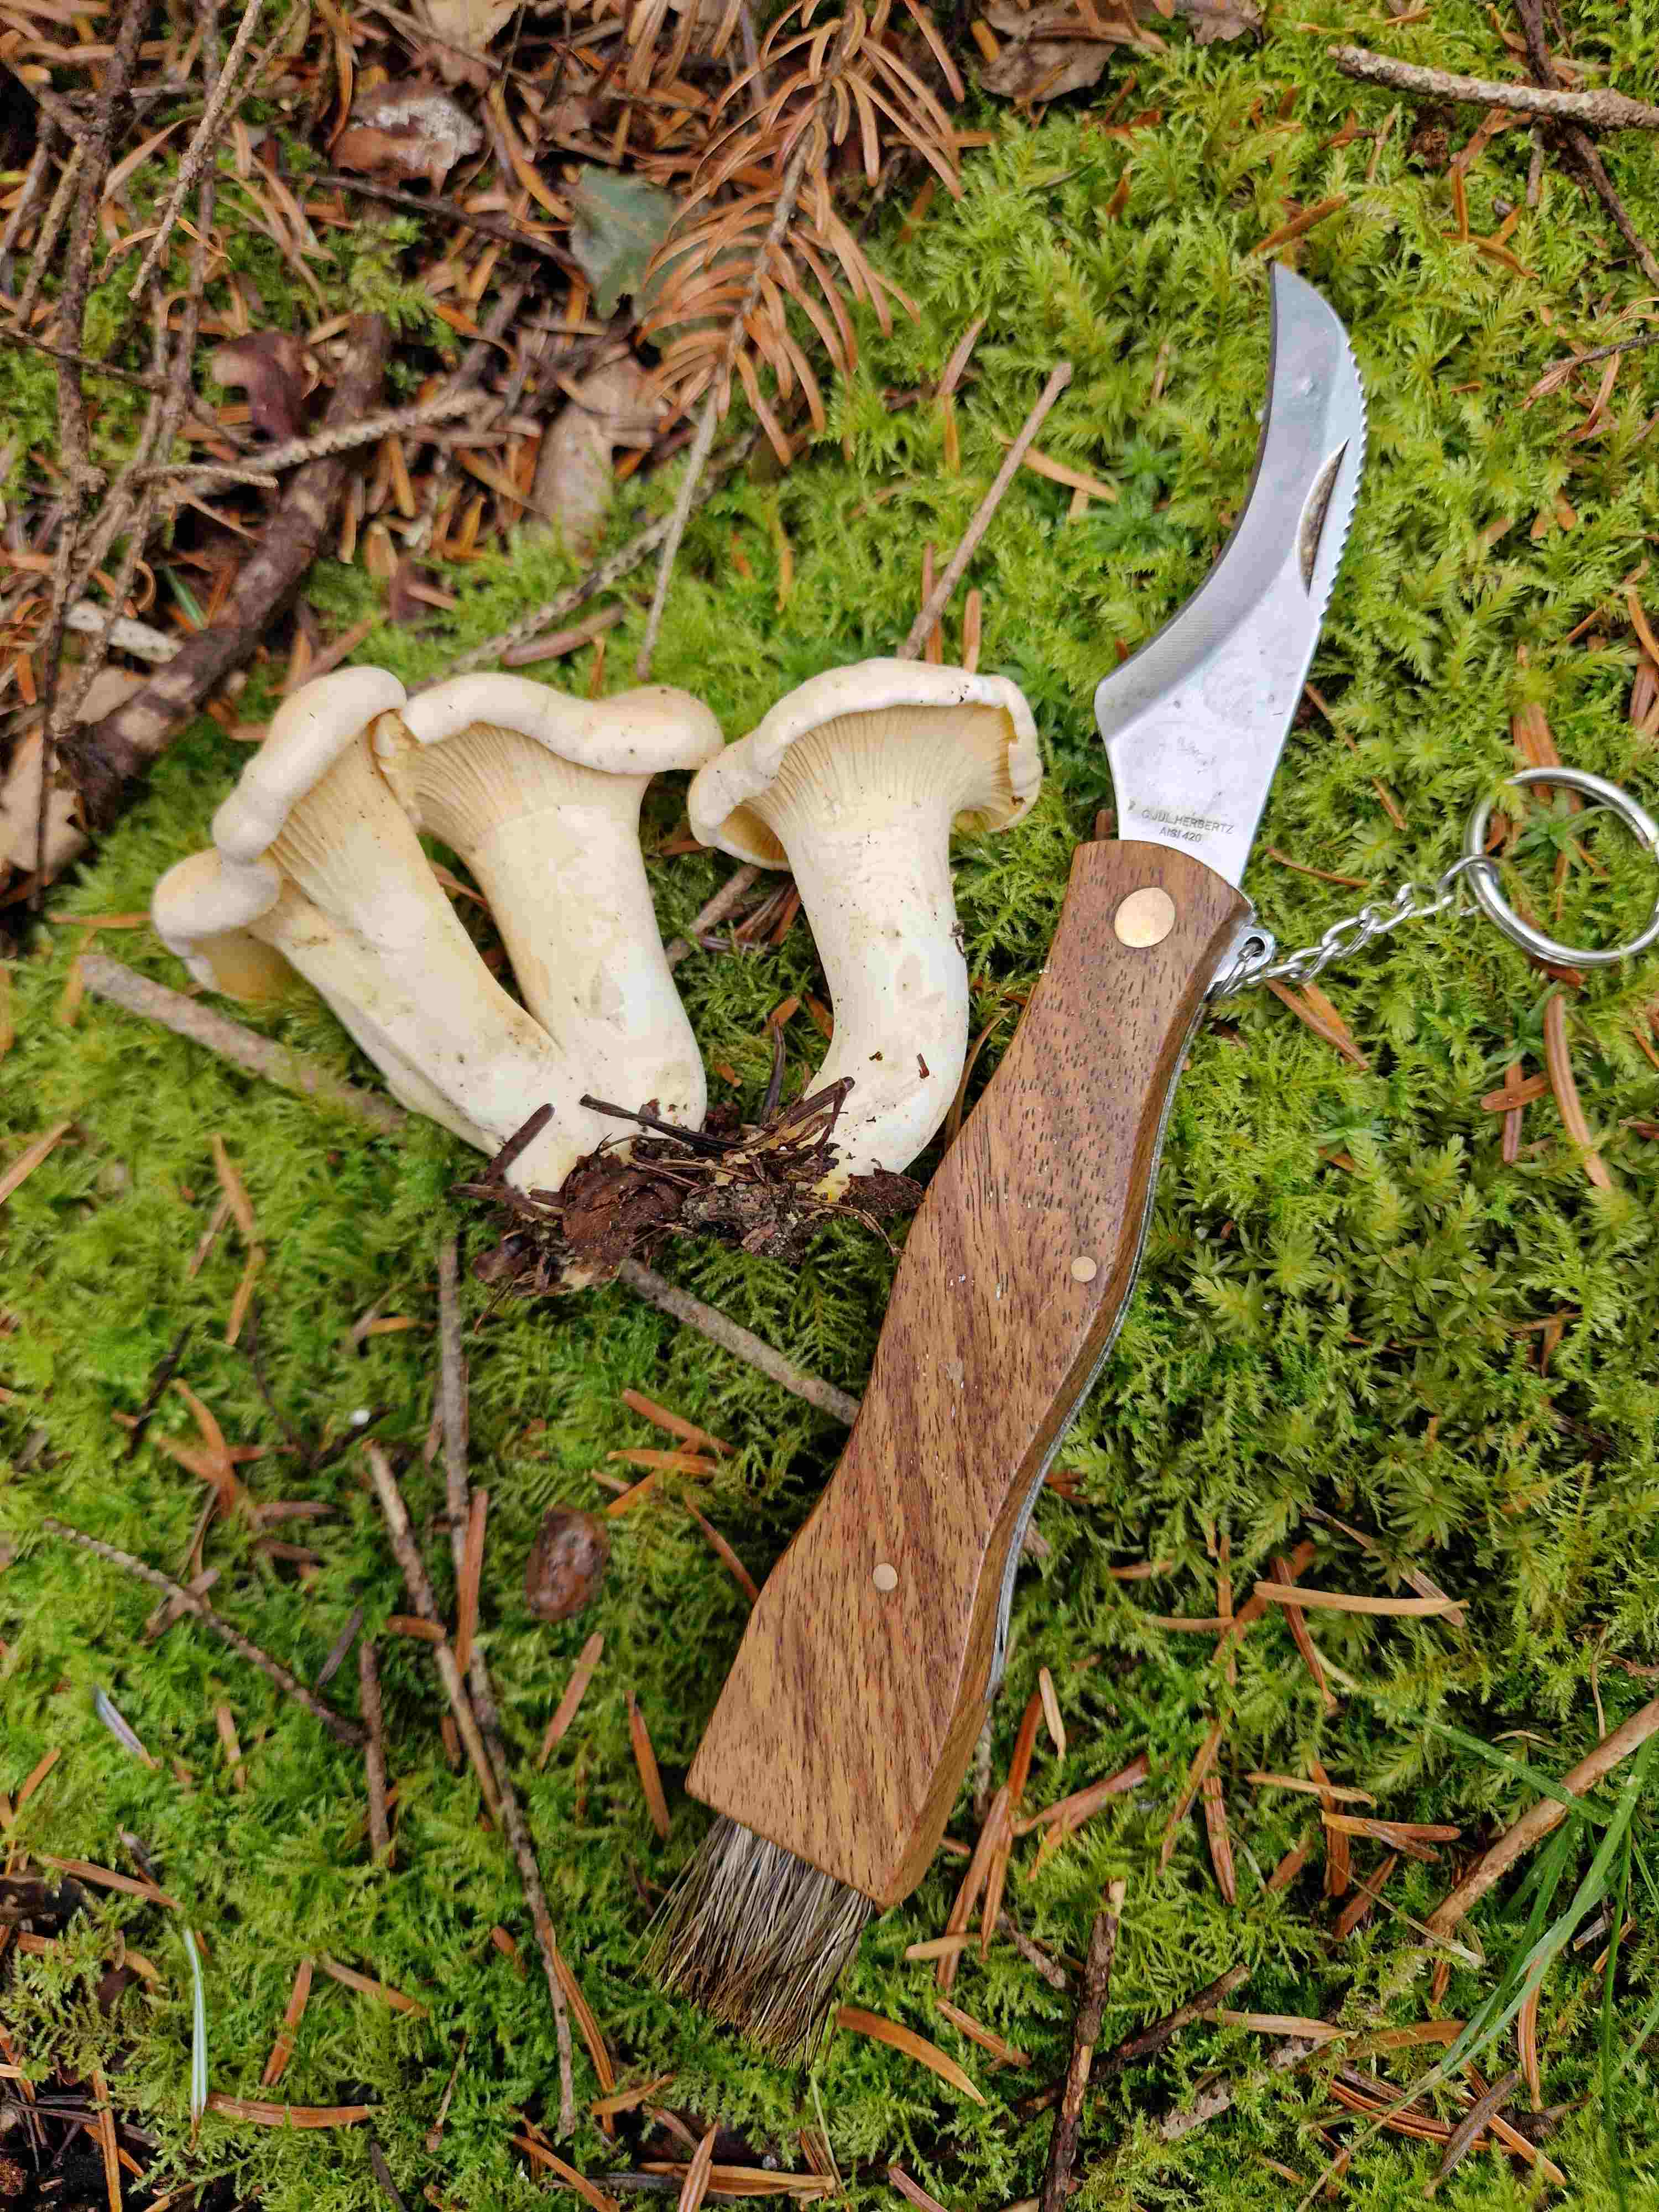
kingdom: Fungi
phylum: Basidiomycota
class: Agaricomycetes
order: Cantharellales
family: Hydnaceae
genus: Cantharellus
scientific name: Cantharellus pallens
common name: bleg kantarel
